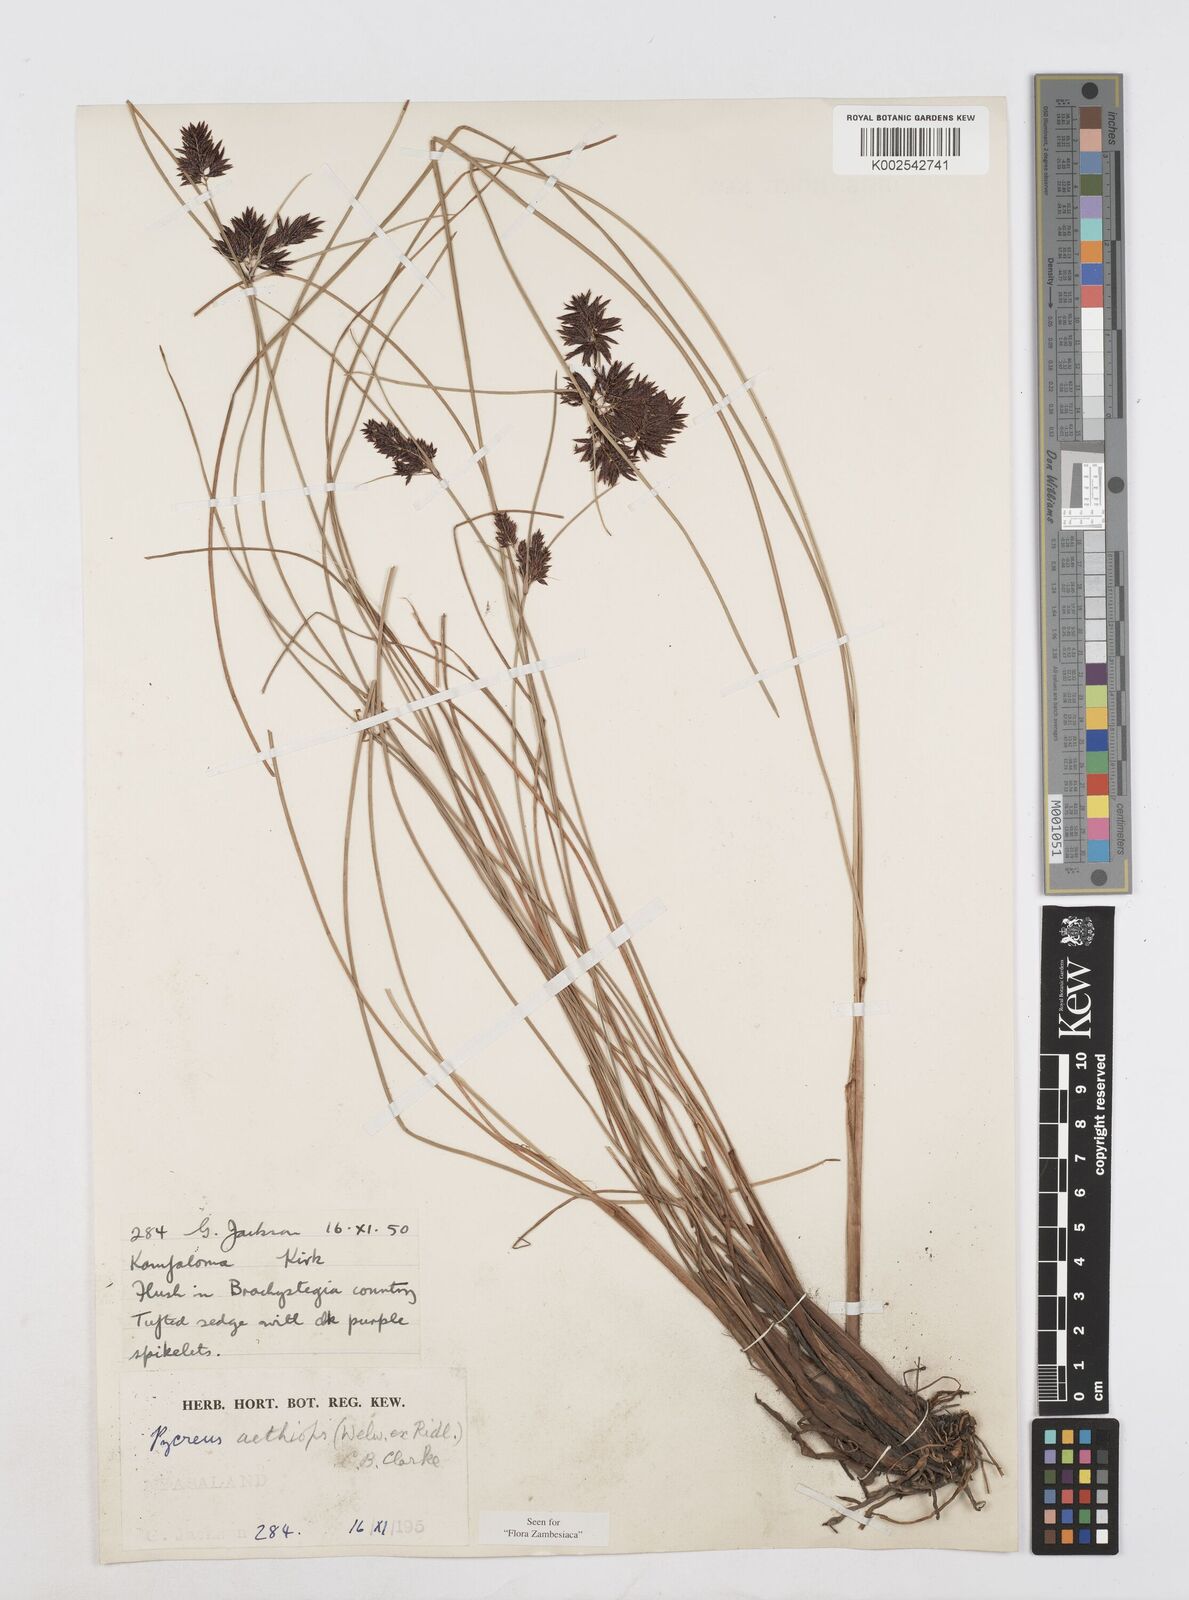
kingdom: Plantae
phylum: Tracheophyta
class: Liliopsida
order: Poales
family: Cyperaceae
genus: Cyperus
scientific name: Cyperus aethiops
